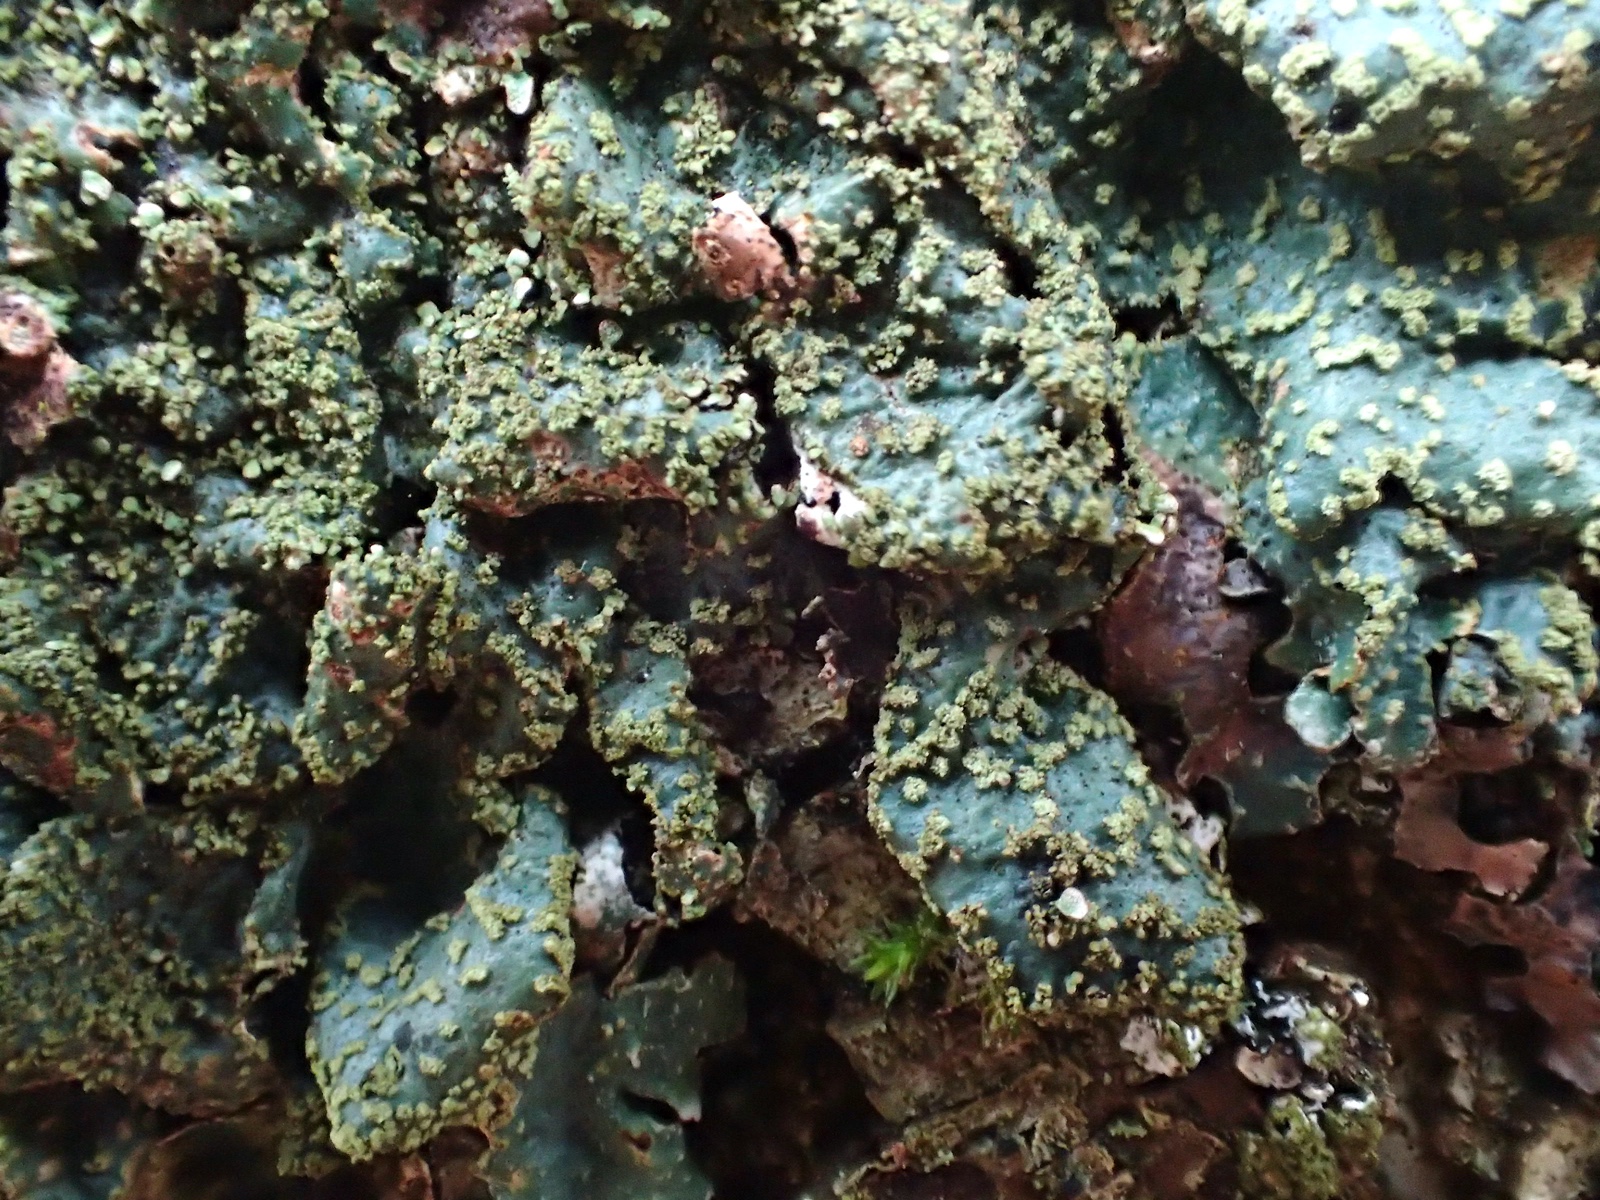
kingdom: Fungi
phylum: Ascomycota
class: Lecanoromycetes
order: Lecanorales
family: Parmeliaceae
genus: Parmelia
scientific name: Parmelia sulcata
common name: rynket skållav
